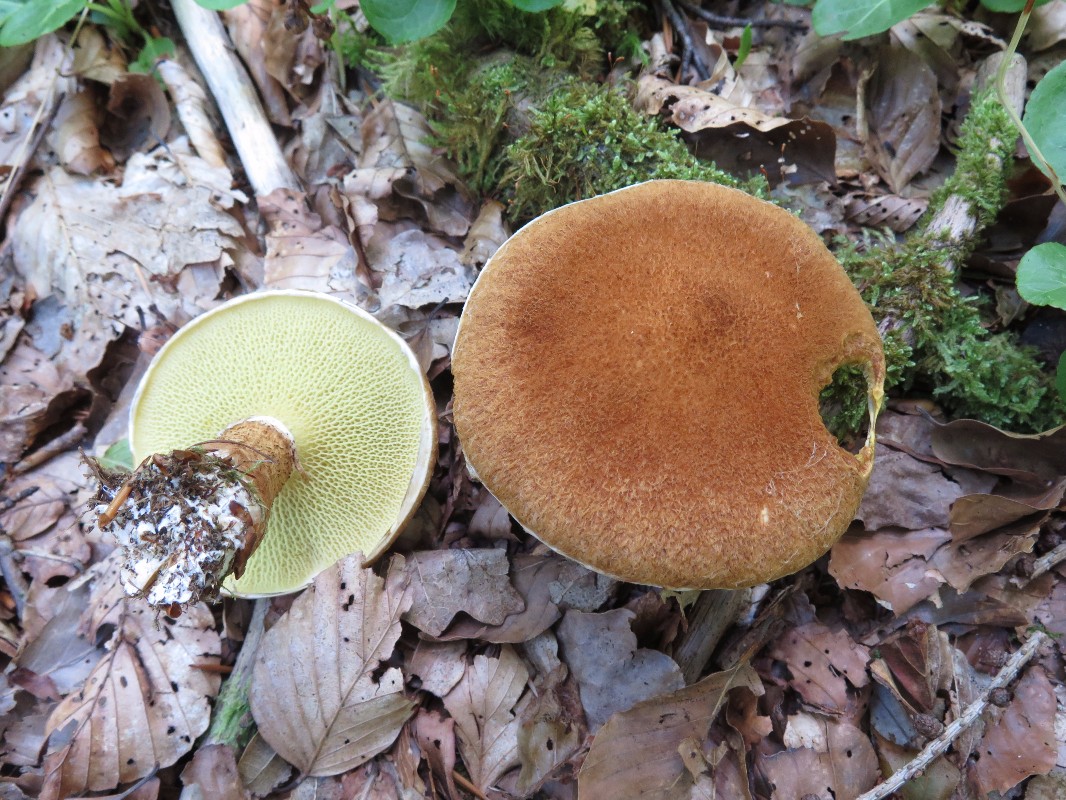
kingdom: Fungi
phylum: Basidiomycota
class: Agaricomycetes
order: Boletales
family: Suillaceae
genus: Suillus
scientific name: Suillus cavipes
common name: hulstokket slimrørhat
